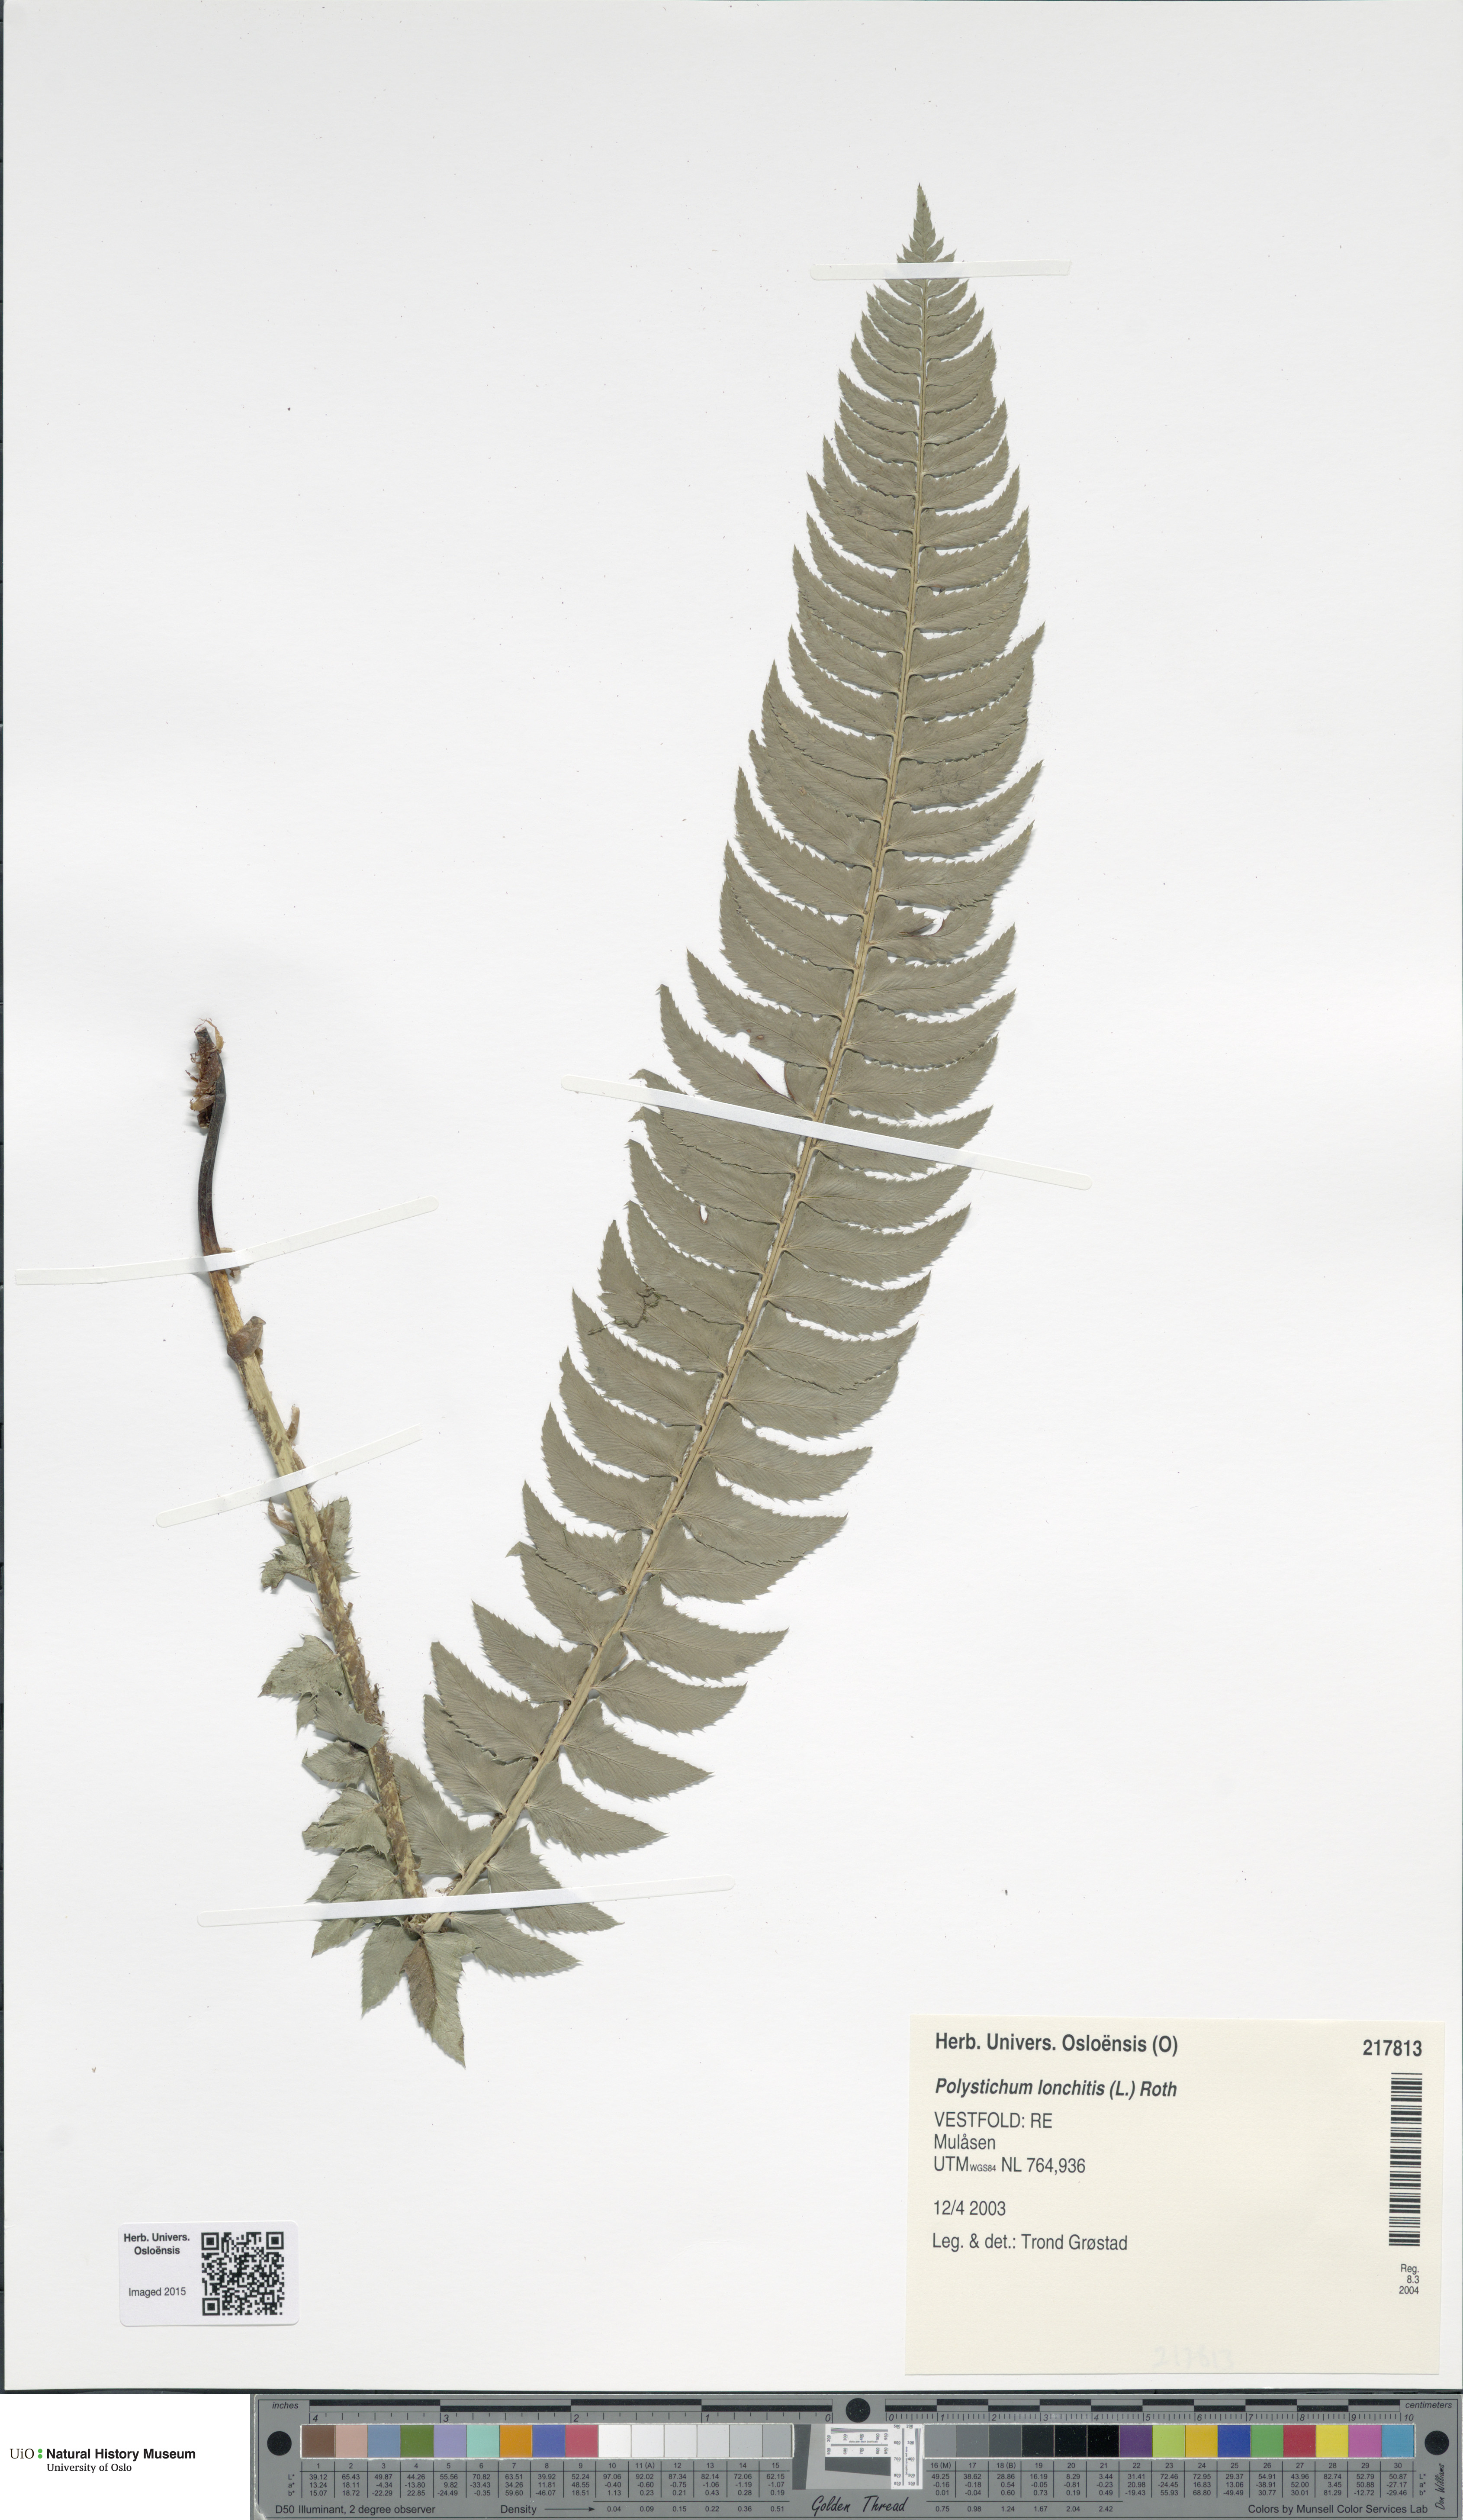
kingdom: Plantae
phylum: Tracheophyta
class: Polypodiopsida
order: Polypodiales
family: Dryopteridaceae
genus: Polystichum
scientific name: Polystichum lonchitis
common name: Holly fern
